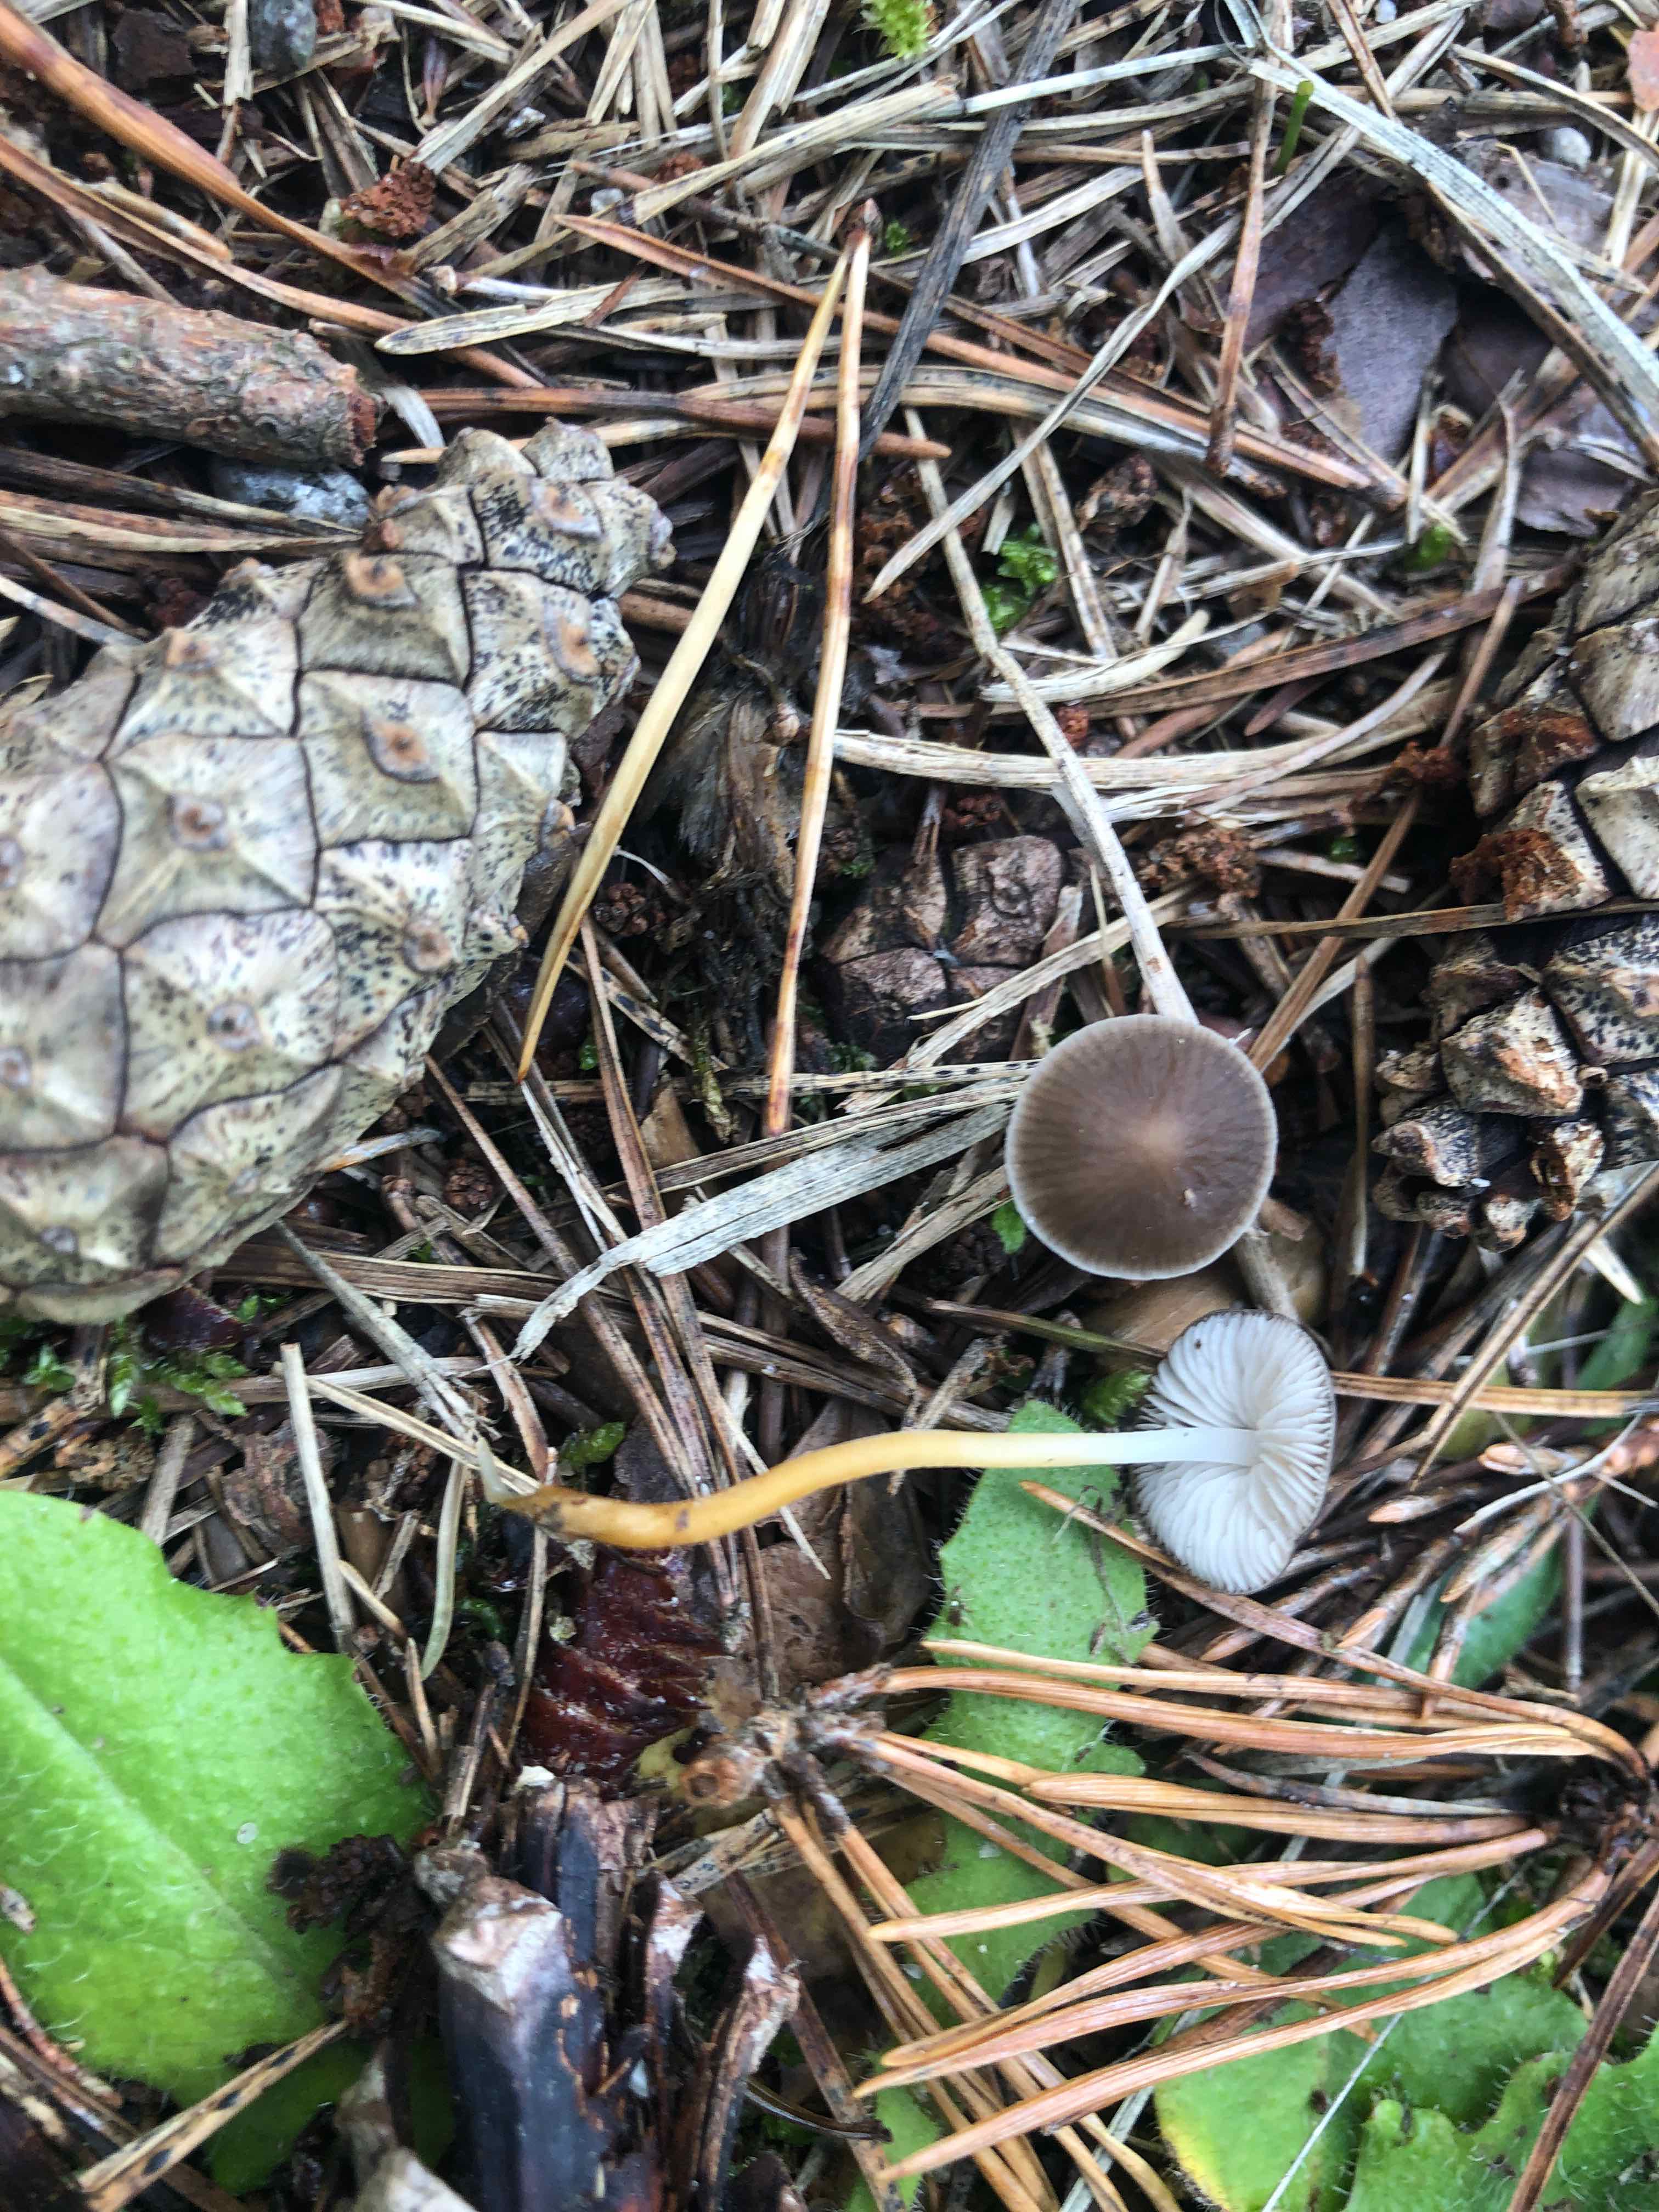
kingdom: Fungi
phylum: Basidiomycota
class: Agaricomycetes
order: Agaricales
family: Physalacriaceae
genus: Strobilurus
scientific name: Strobilurus tenacellus
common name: sommer-koglehat
